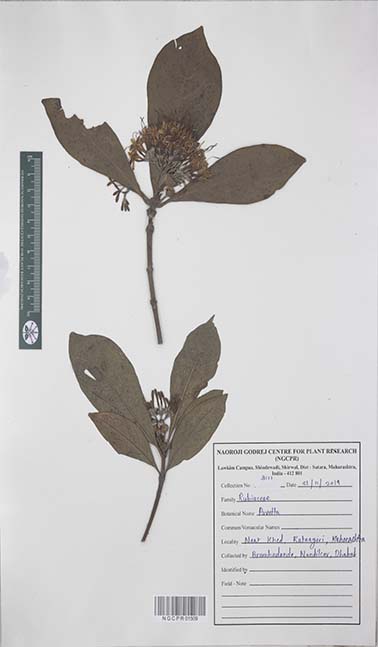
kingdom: Plantae
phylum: Tracheophyta
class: Magnoliopsida
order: Gentianales
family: Rubiaceae
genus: Pavetta
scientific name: Pavetta
